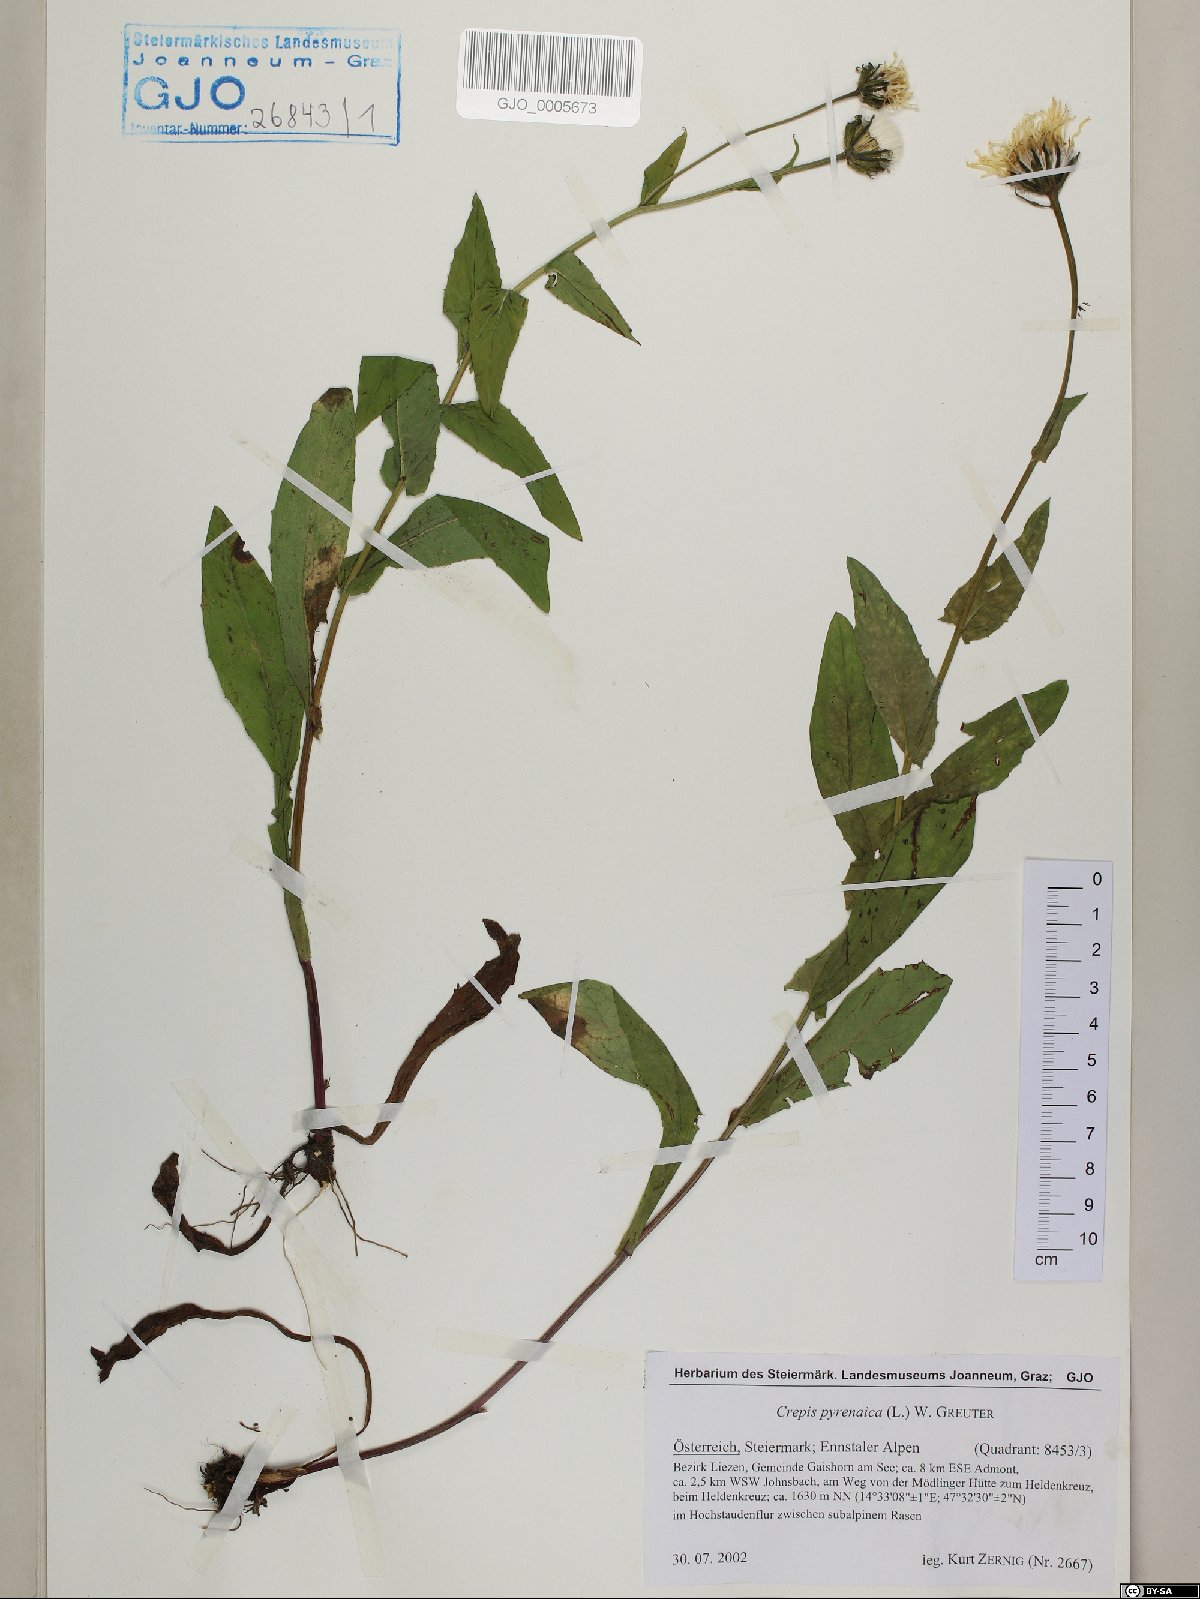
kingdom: Plantae
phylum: Tracheophyta
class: Magnoliopsida
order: Asterales
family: Asteraceae
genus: Crepis
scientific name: Crepis pyrenaica
